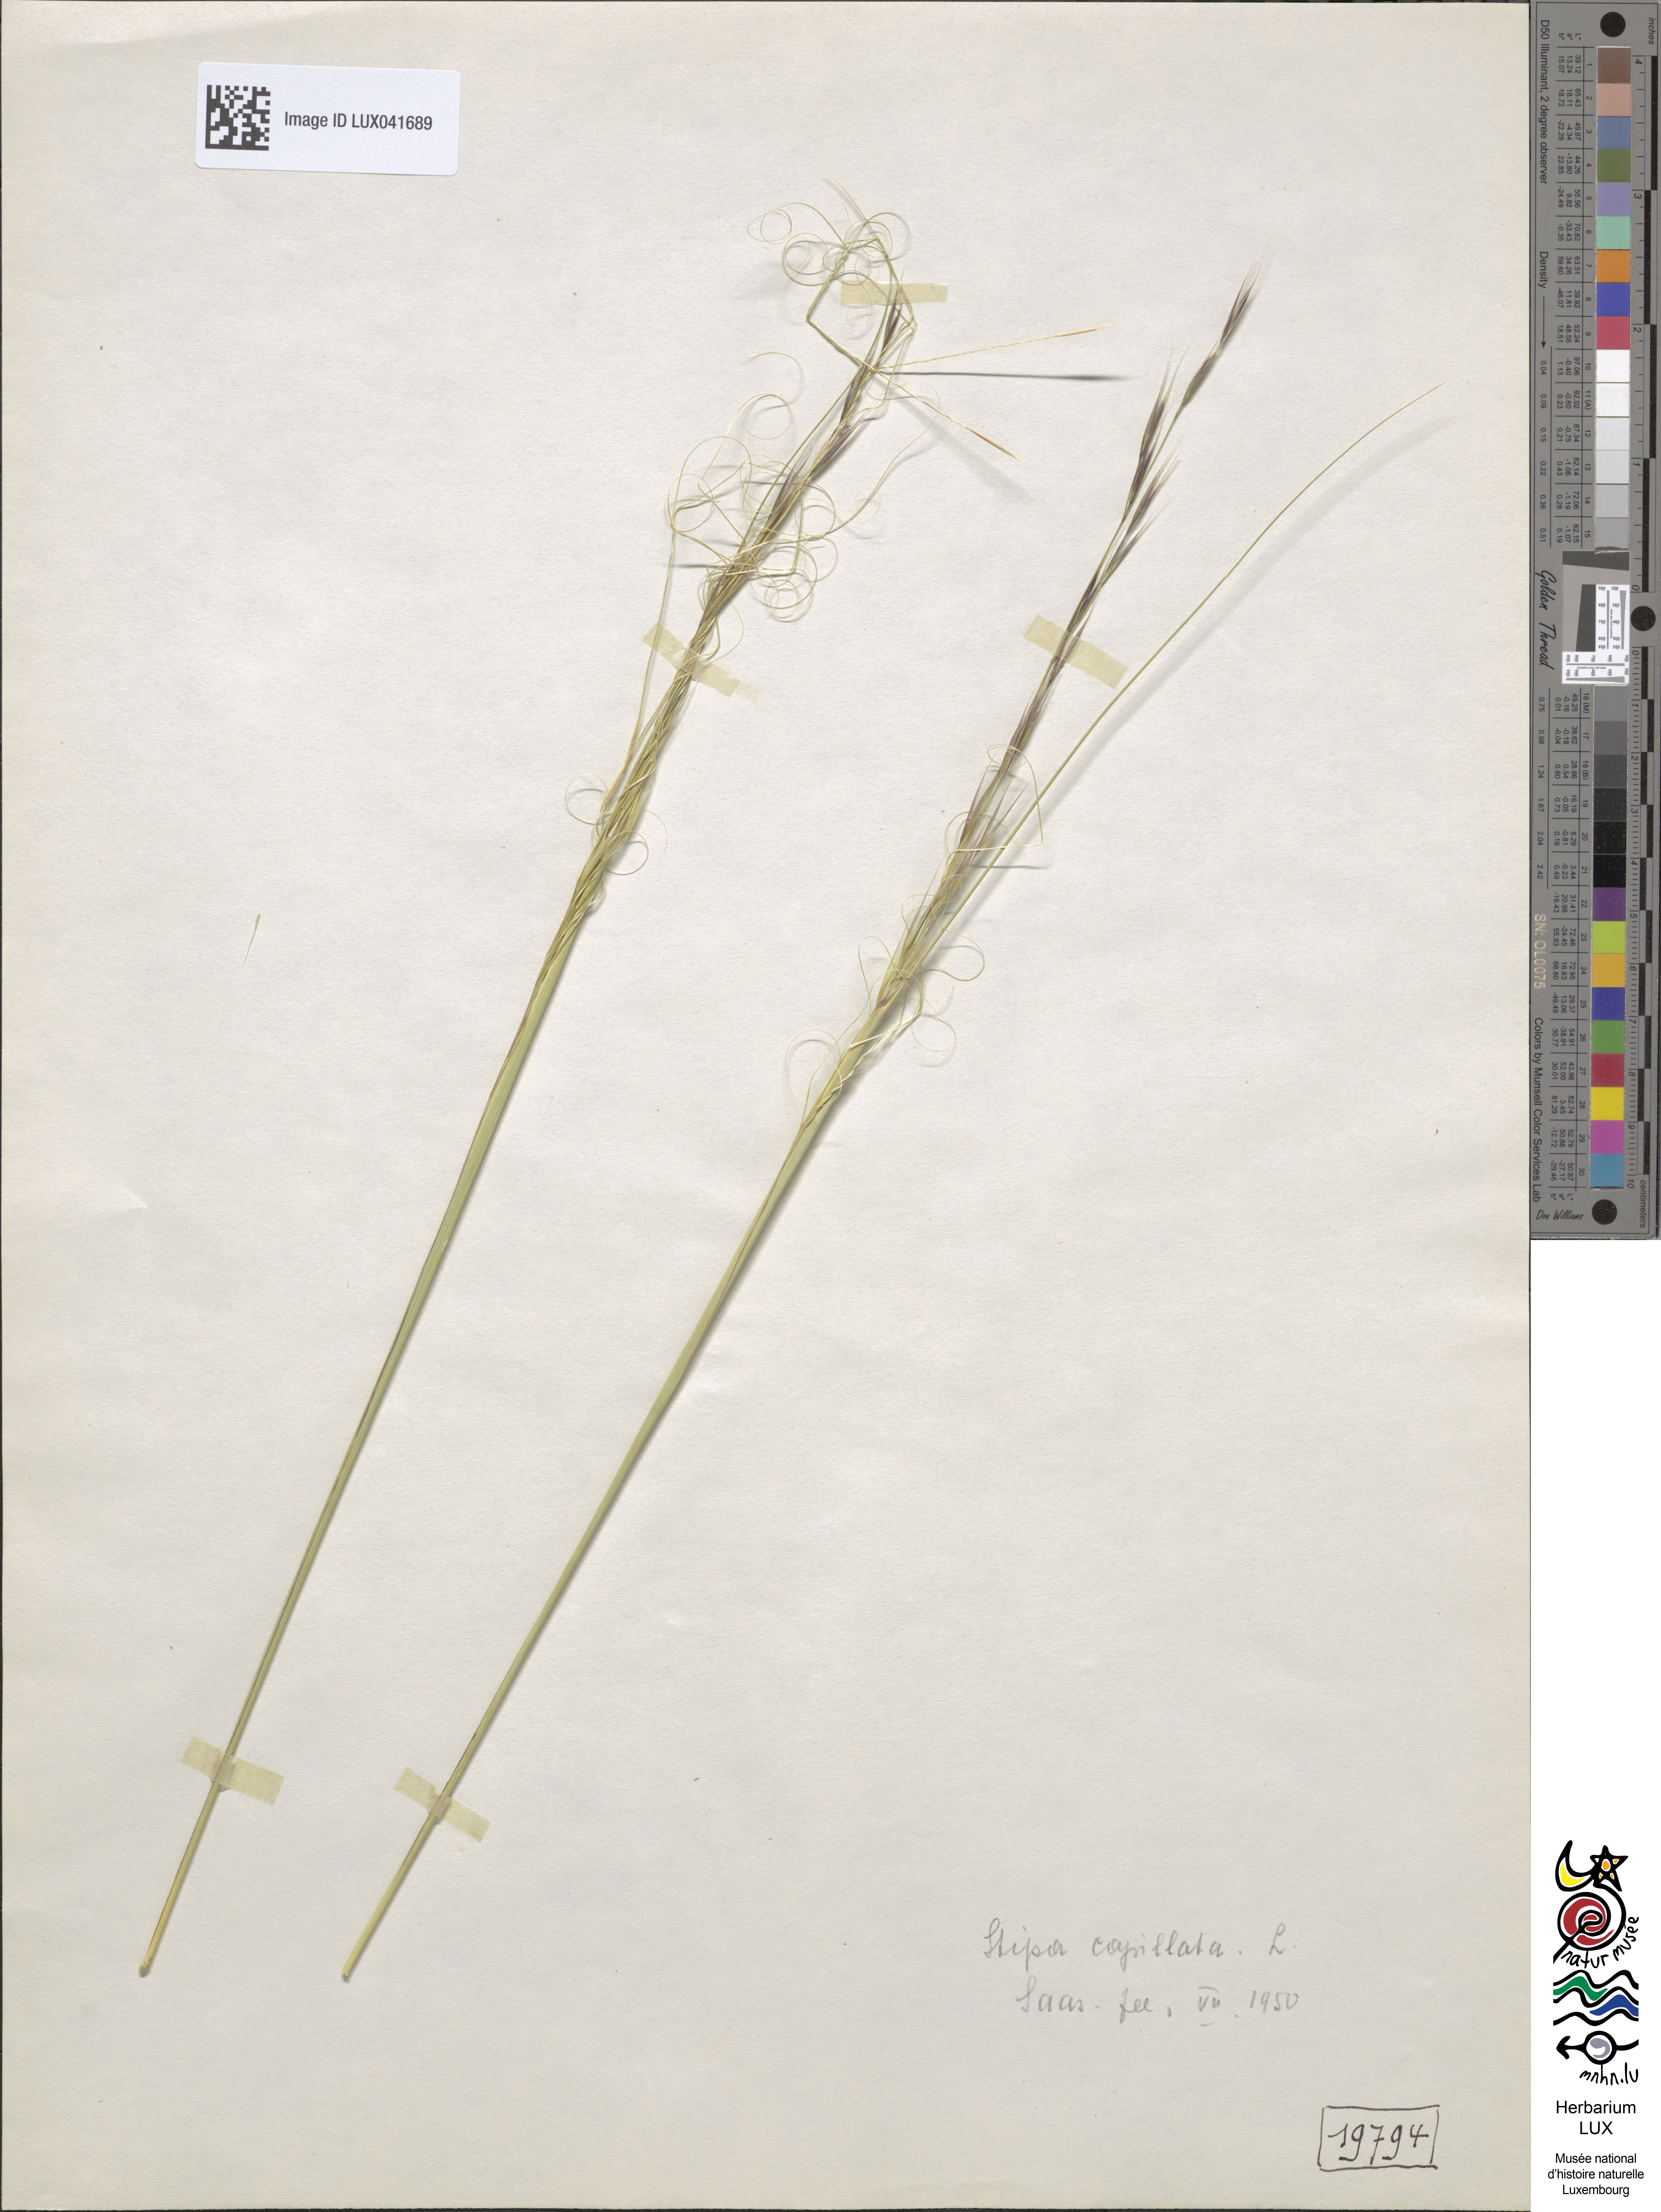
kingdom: Plantae
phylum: Tracheophyta
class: Liliopsida
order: Poales
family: Poaceae
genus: Stipa
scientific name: Stipa capillata
